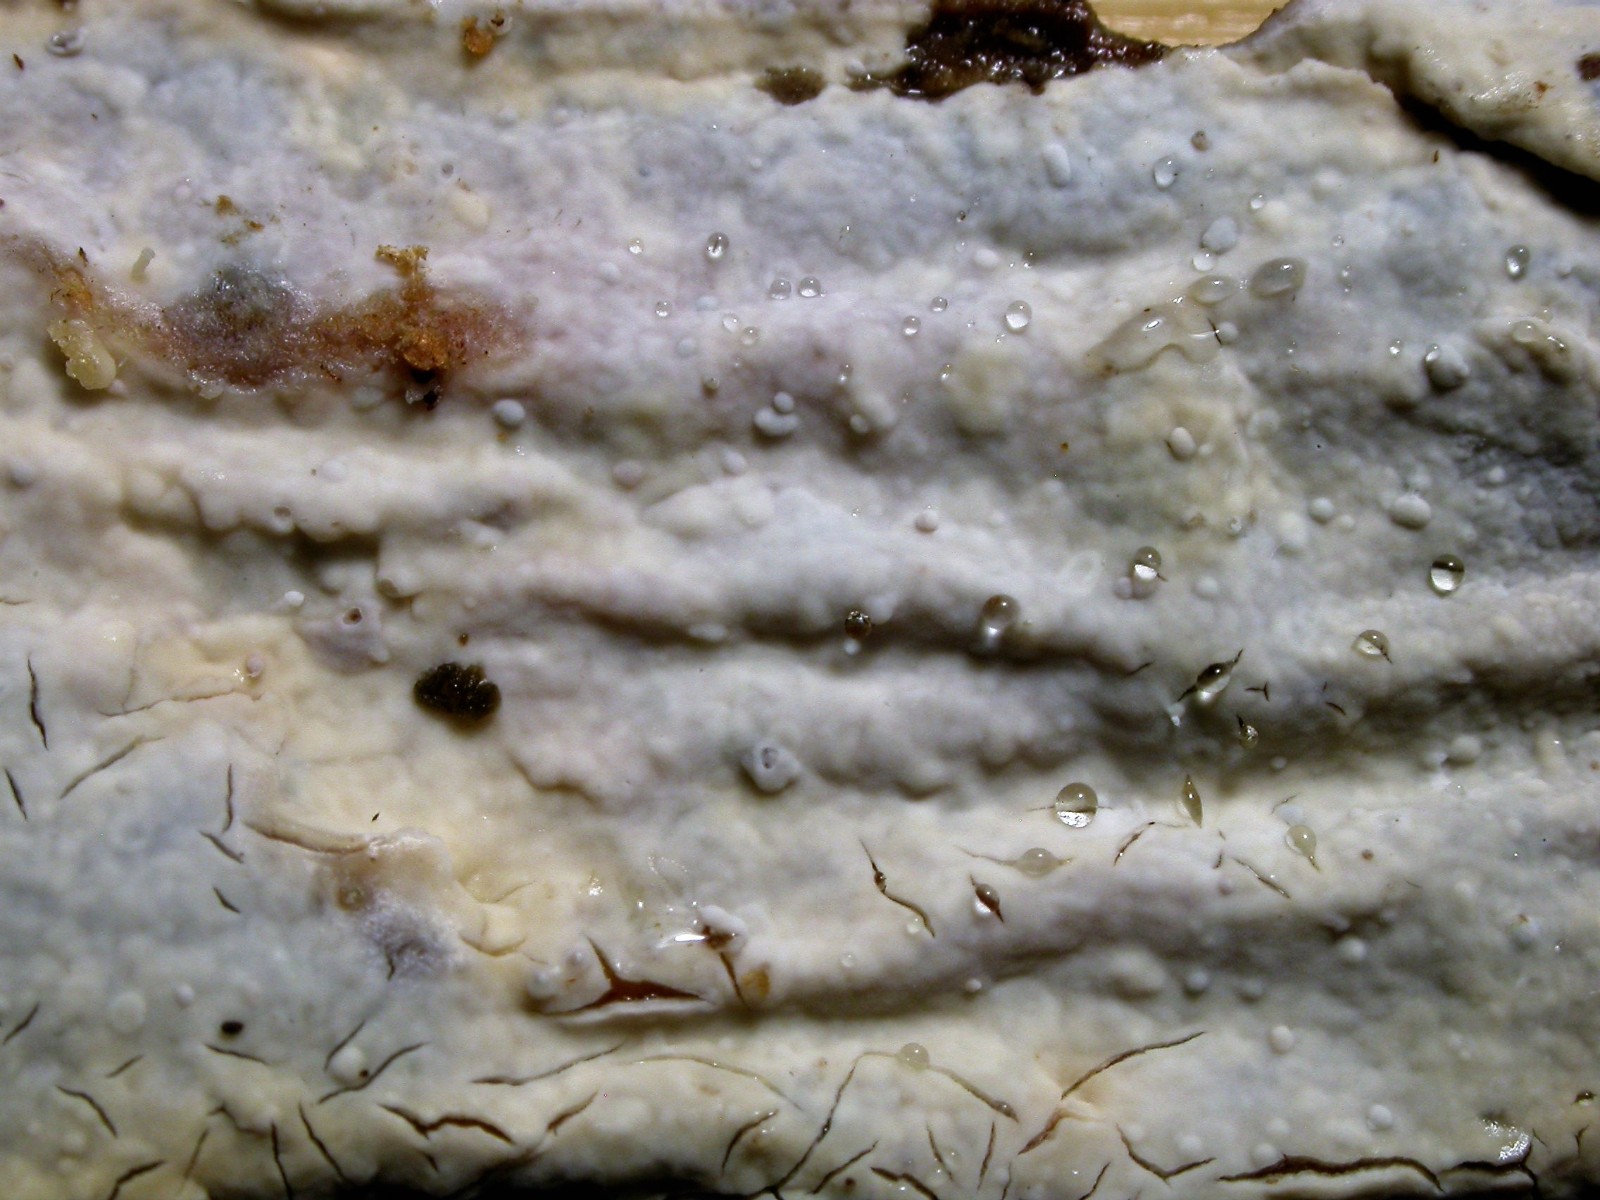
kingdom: Fungi
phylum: Basidiomycota
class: Agaricomycetes
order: Russulales
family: Peniophoraceae
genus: Gloiothele
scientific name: Gloiothele lactescens
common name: bitter olieskind
